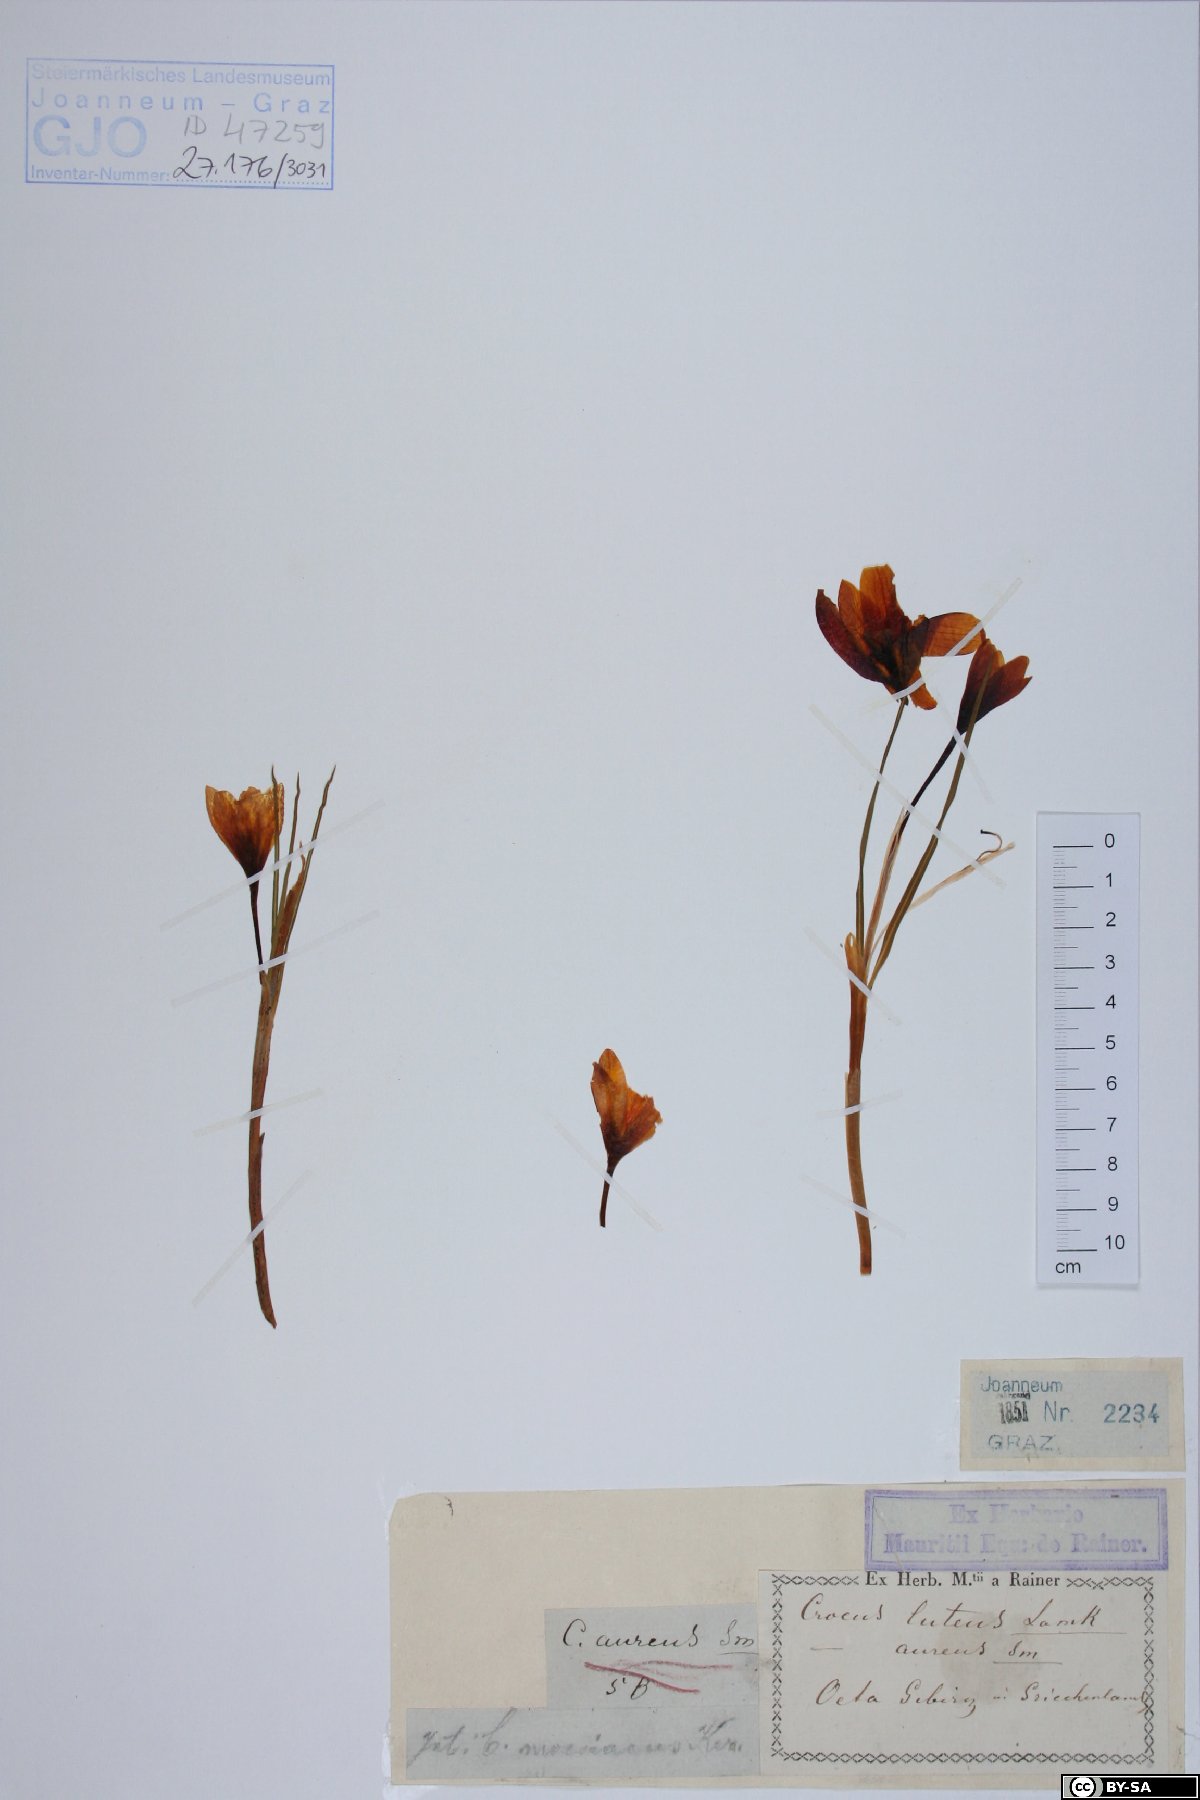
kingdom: Plantae
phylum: Tracheophyta
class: Liliopsida
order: Asparagales
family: Iridaceae
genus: Crocus
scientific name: Crocus luteus
